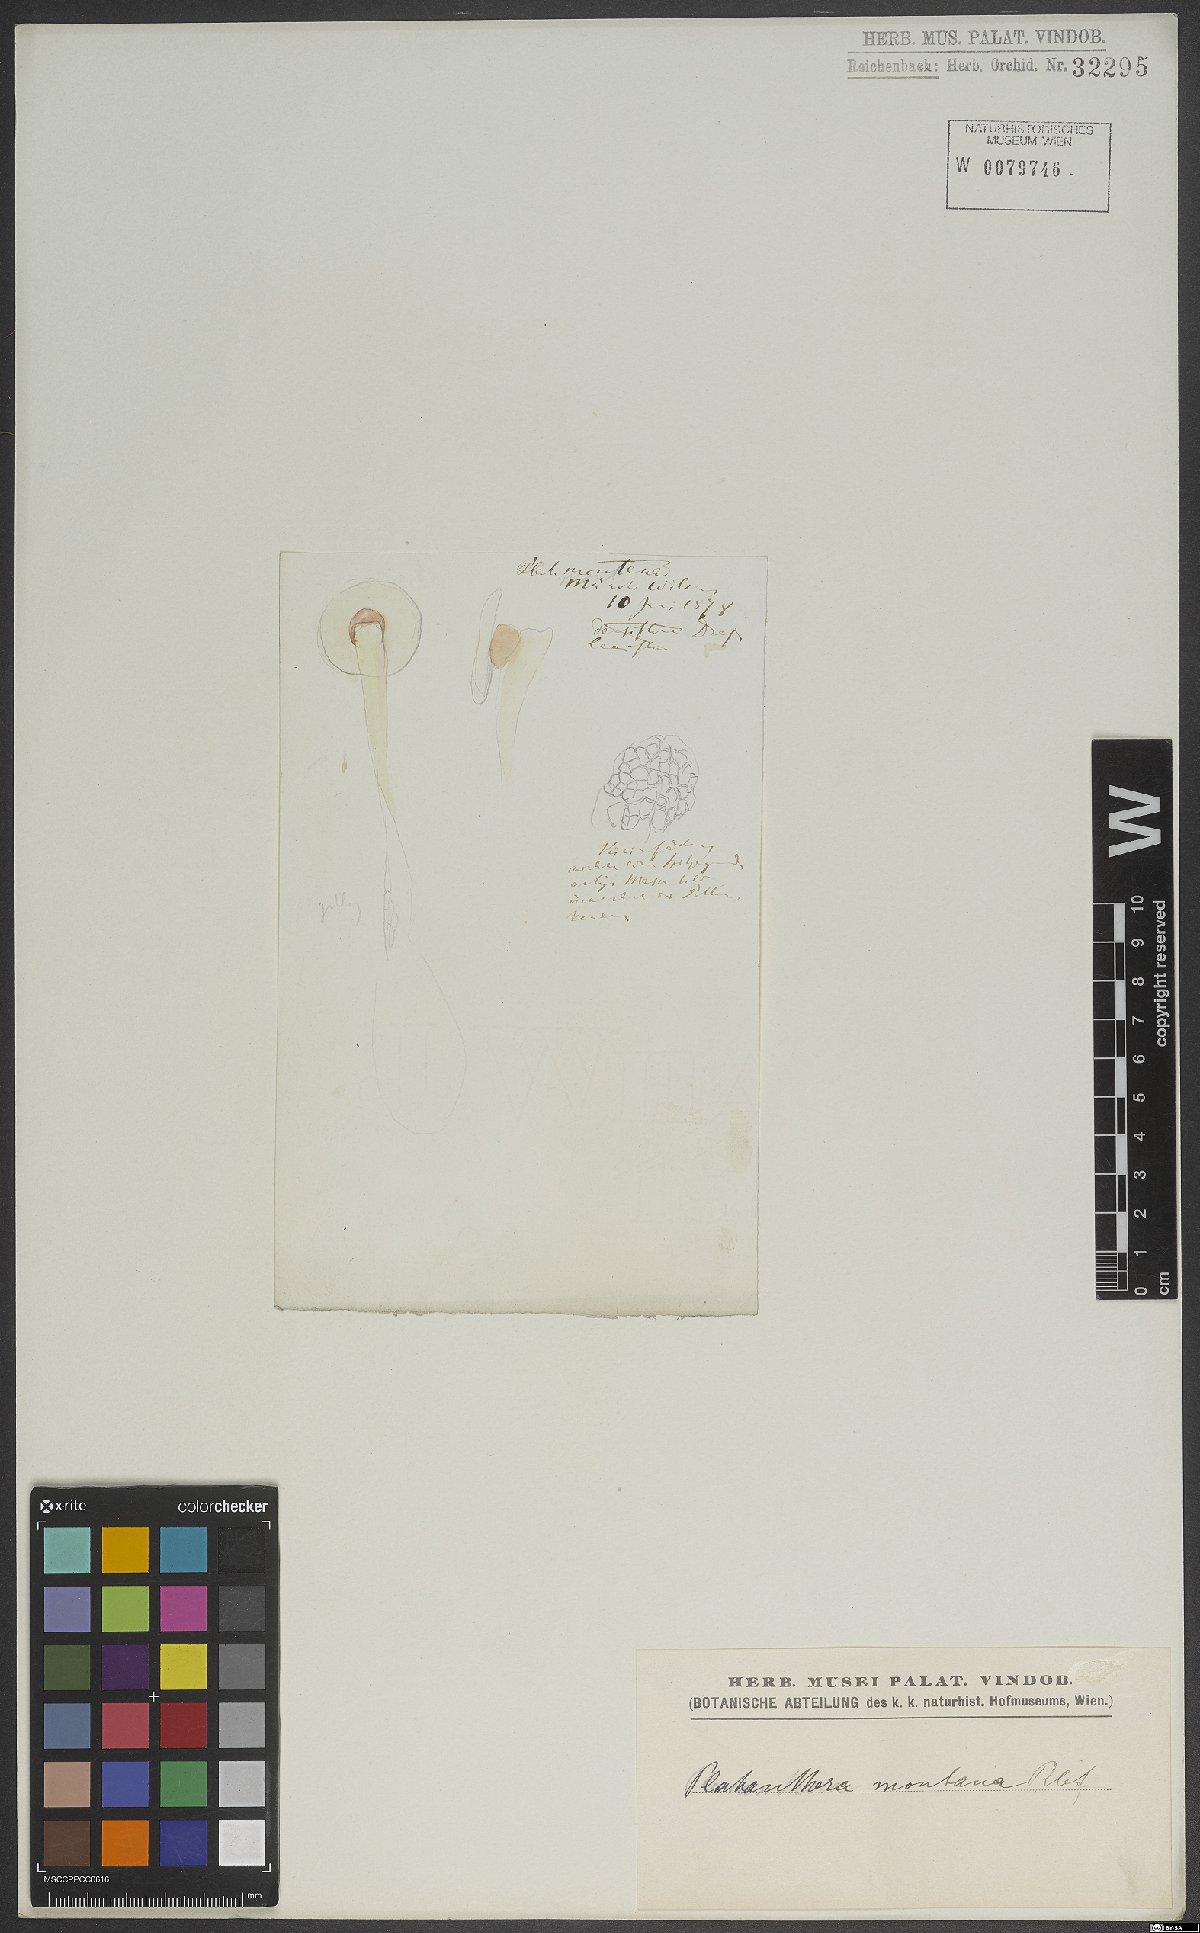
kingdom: Plantae
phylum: Tracheophyta
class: Liliopsida
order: Asparagales
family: Orchidaceae
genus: Platanthera
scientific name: Platanthera chlorantha
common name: Greater butterfly-orchid
